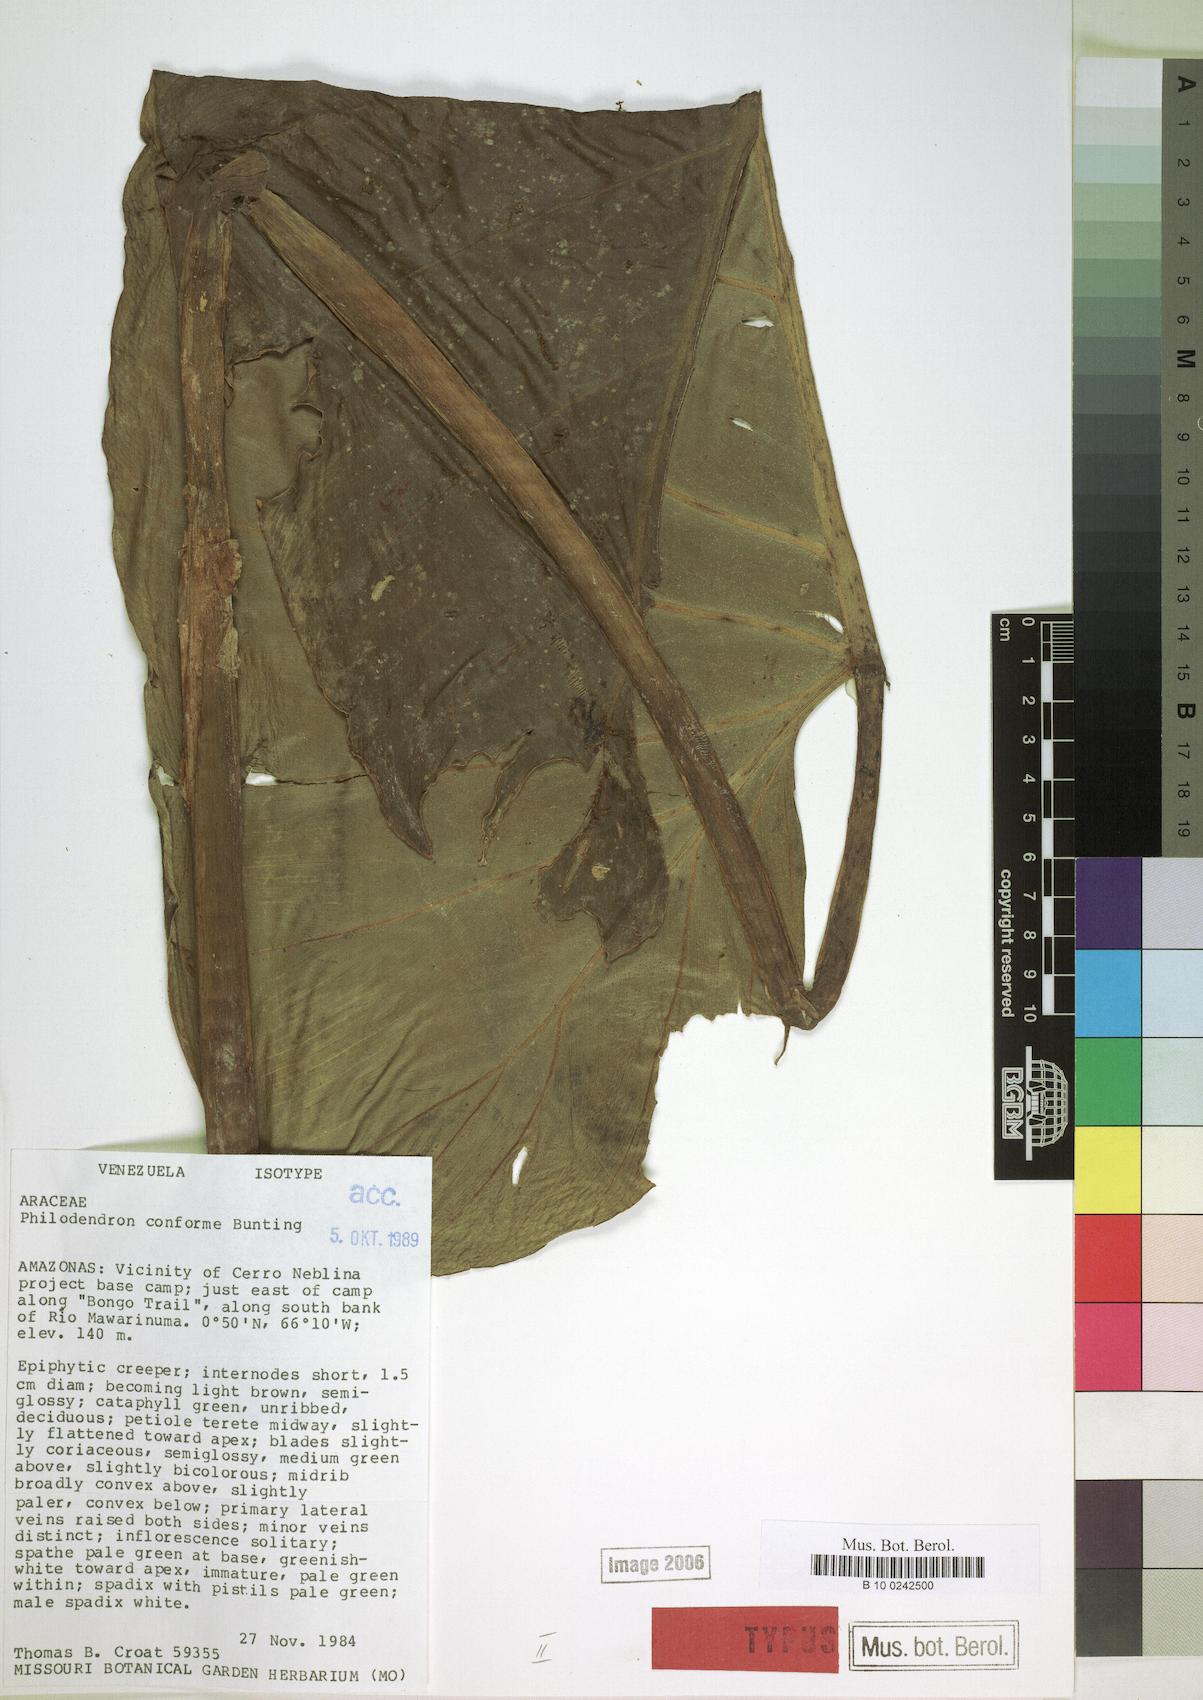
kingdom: Plantae
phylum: Tracheophyta
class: Liliopsida
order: Alismatales
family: Araceae
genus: Philodendron
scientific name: Philodendron conforme
